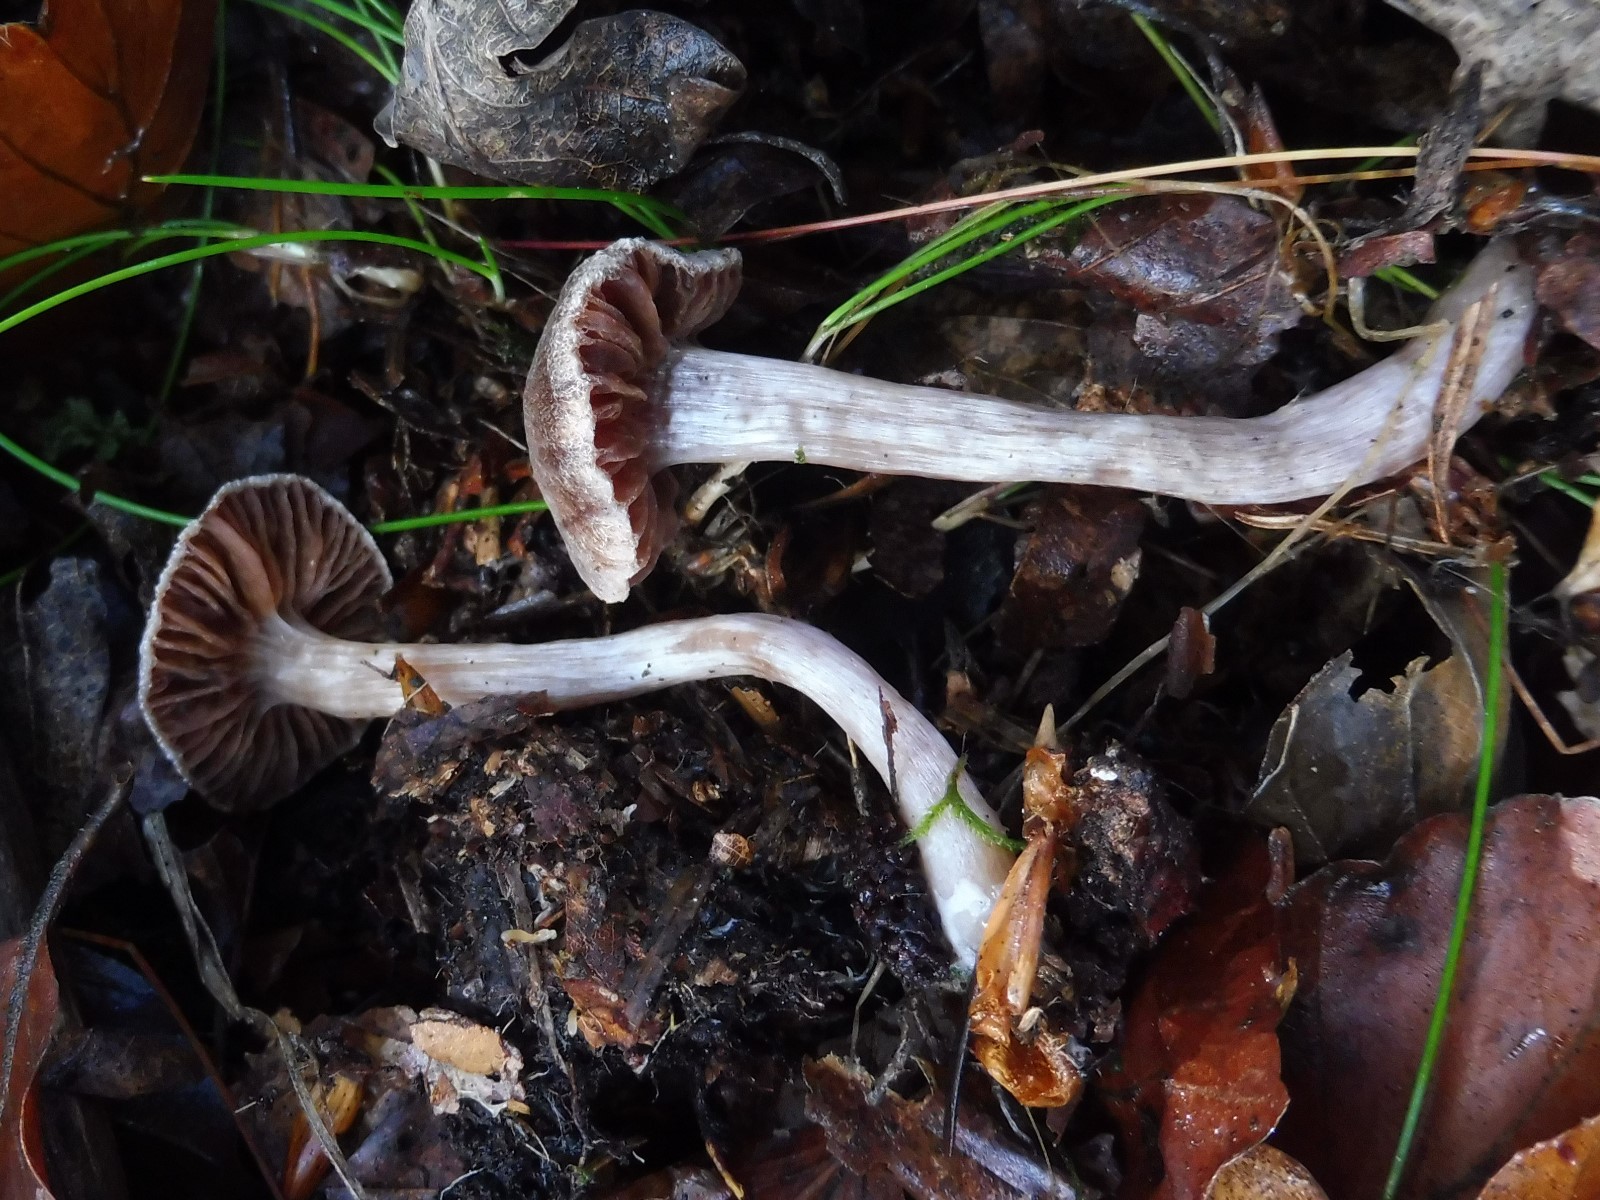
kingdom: Fungi
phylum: Basidiomycota
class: Agaricomycetes
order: Agaricales
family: Cortinariaceae
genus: Cortinarius
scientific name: Cortinarius
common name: pelargonie-slørhat
